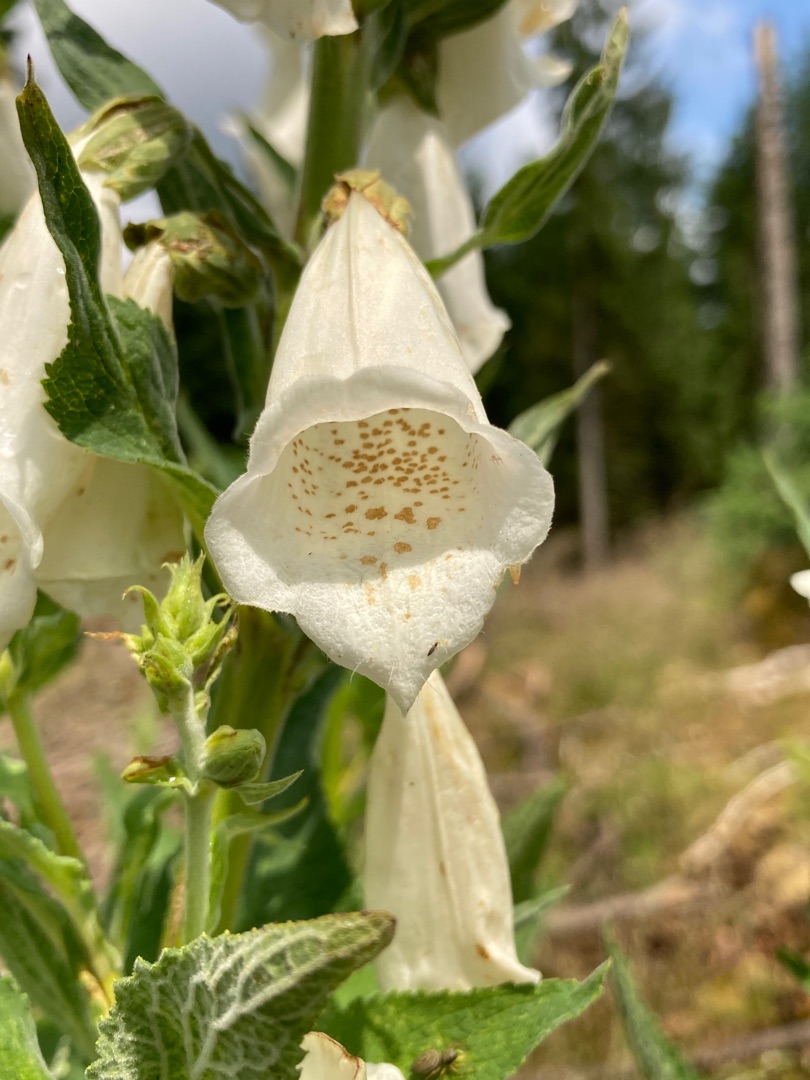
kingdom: Plantae
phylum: Tracheophyta
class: Magnoliopsida
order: Lamiales
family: Plantaginaceae
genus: Digitalis
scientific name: Digitalis purpurea
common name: Almindelig fingerbøl
